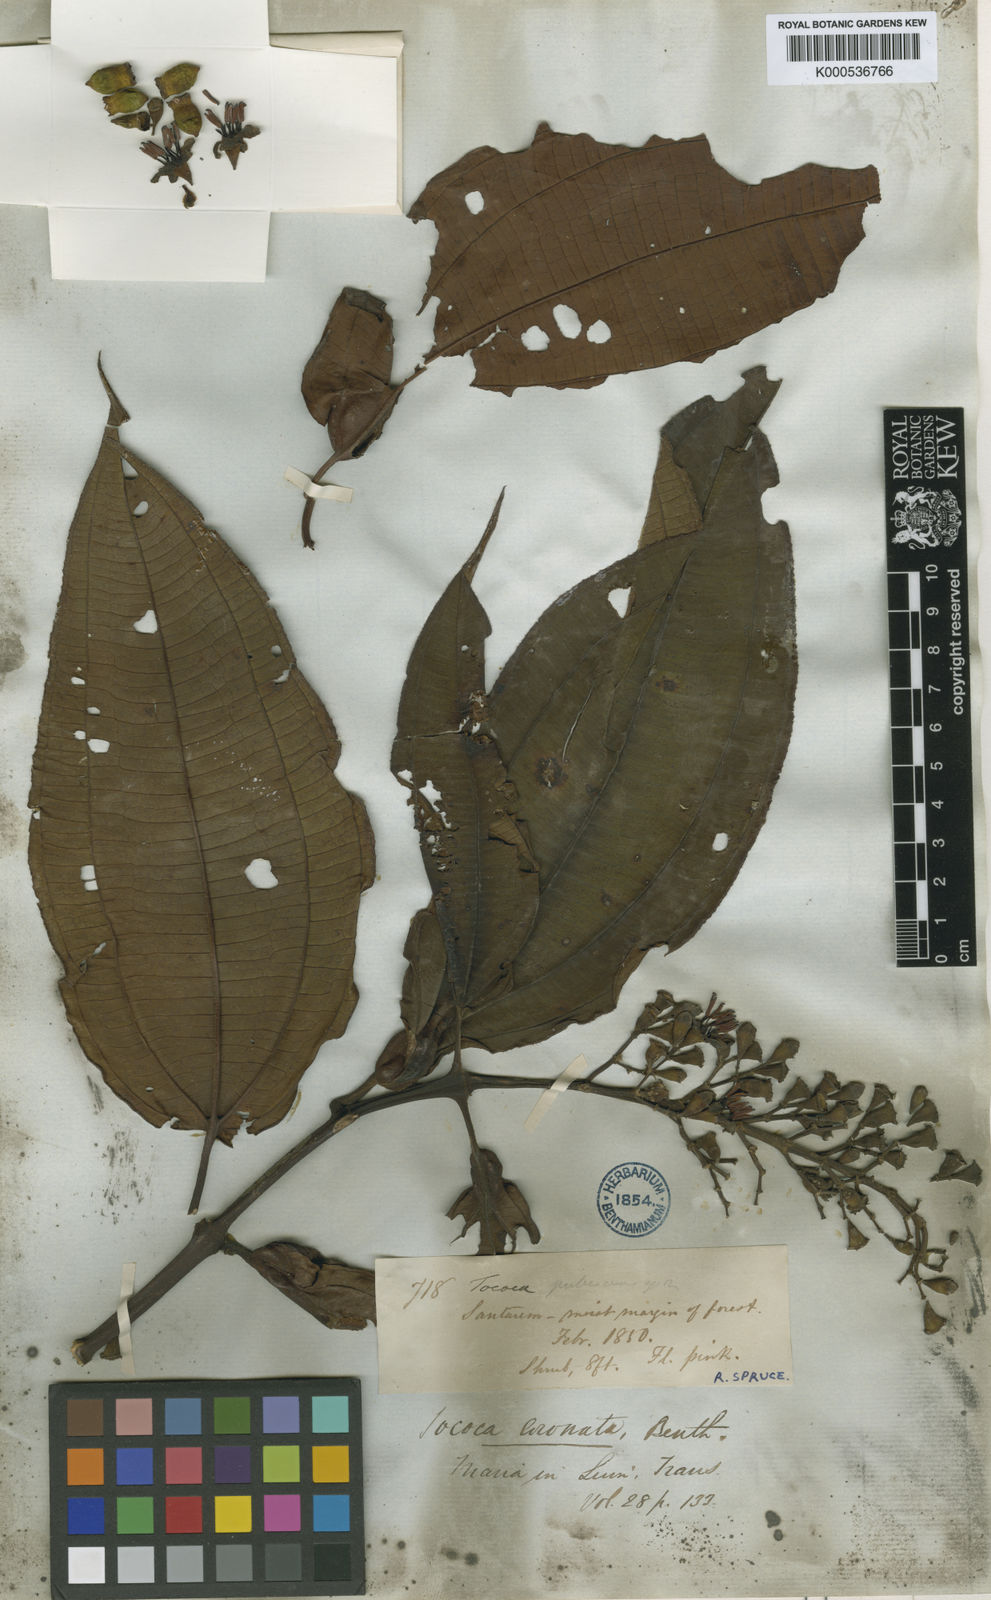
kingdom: Plantae
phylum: Tracheophyta
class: Magnoliopsida
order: Myrtales
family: Melastomataceae
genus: Miconia
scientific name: Miconia tococoronata
